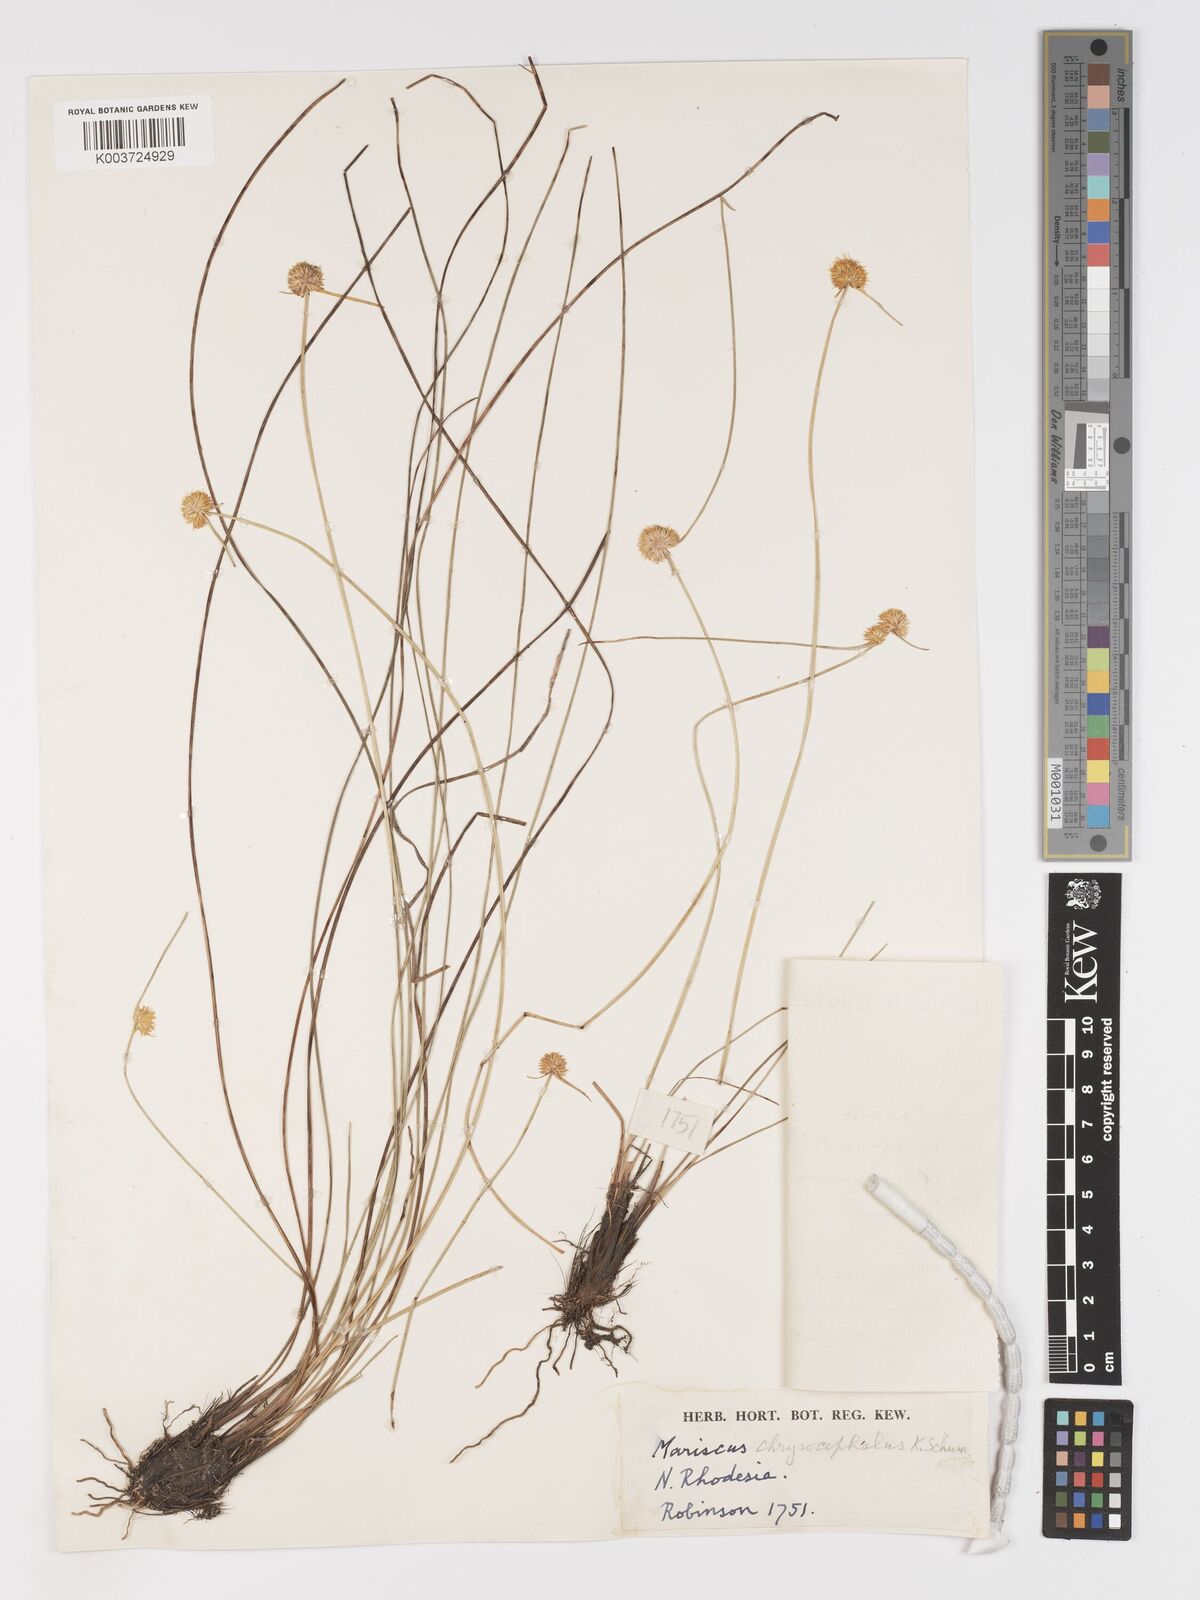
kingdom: Plantae
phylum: Tracheophyta
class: Liliopsida
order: Poales
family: Cyperaceae
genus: Cyperus
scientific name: Cyperus chrysocephalus
